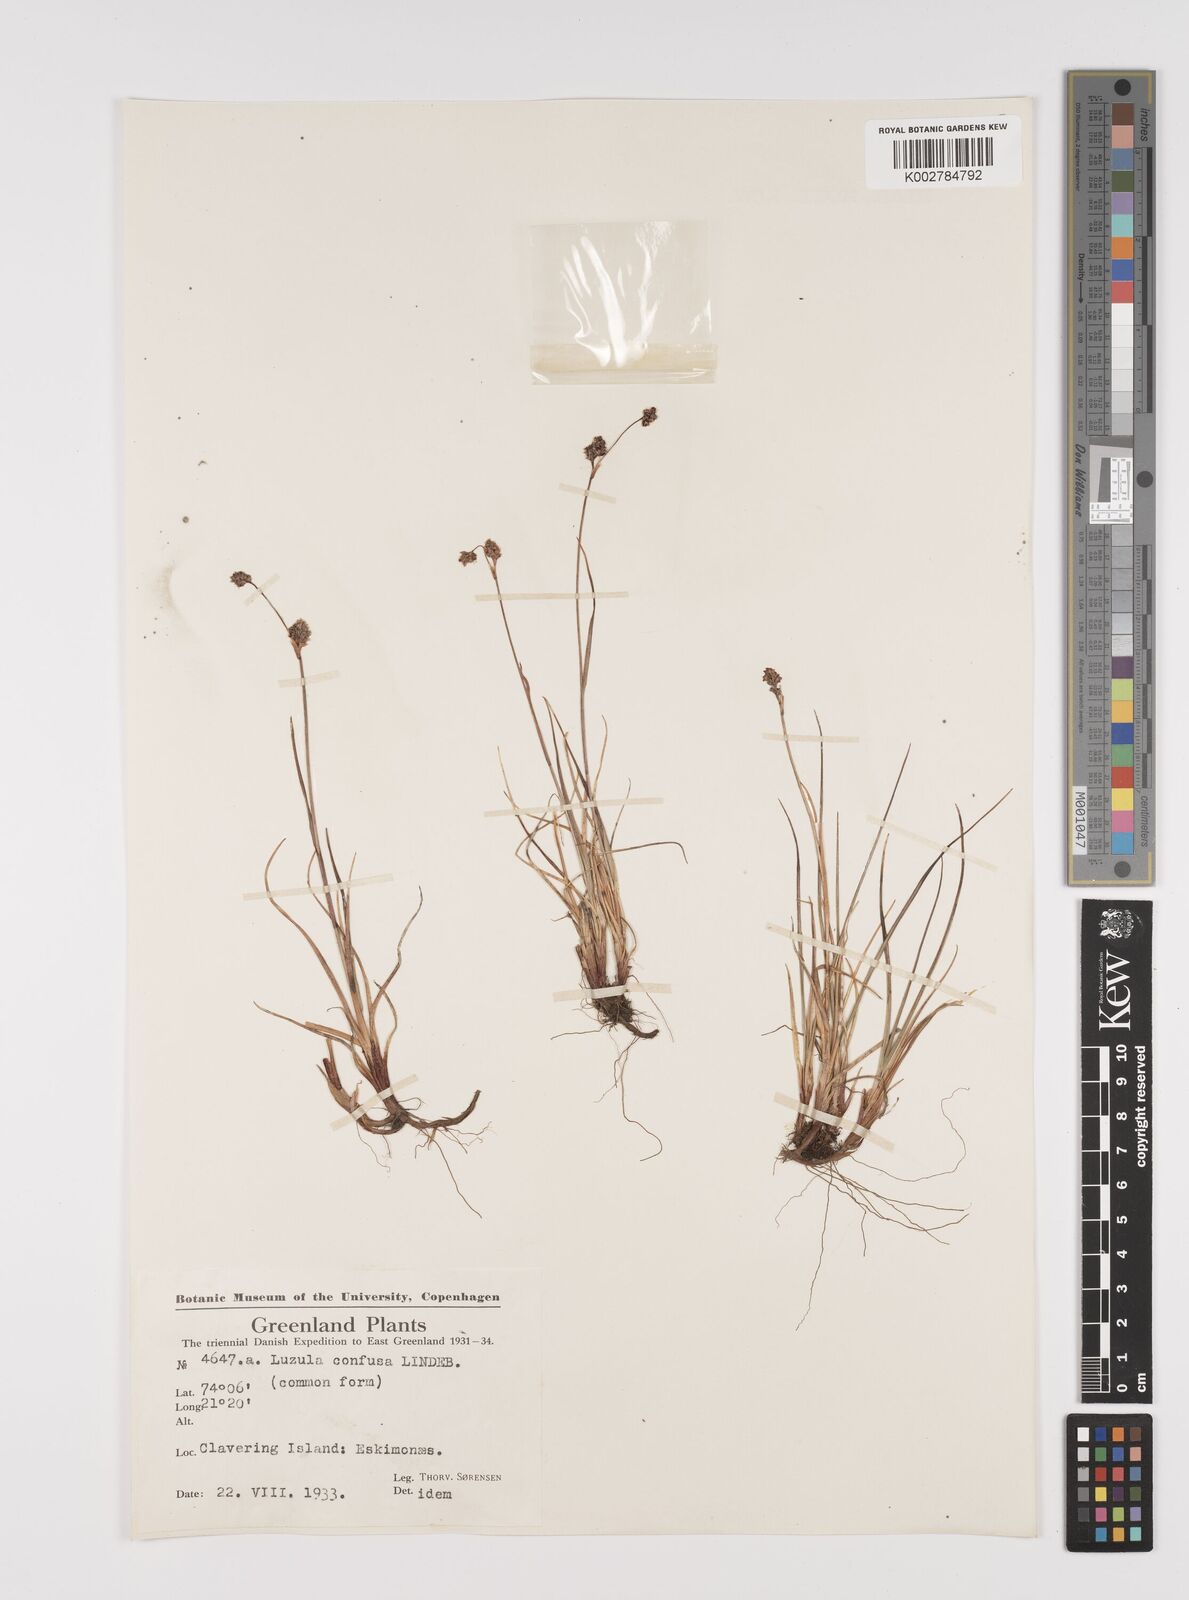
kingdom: Plantae
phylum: Tracheophyta
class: Liliopsida
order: Poales
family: Juncaceae
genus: Luzula
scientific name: Luzula confusa
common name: Northern wood rush
